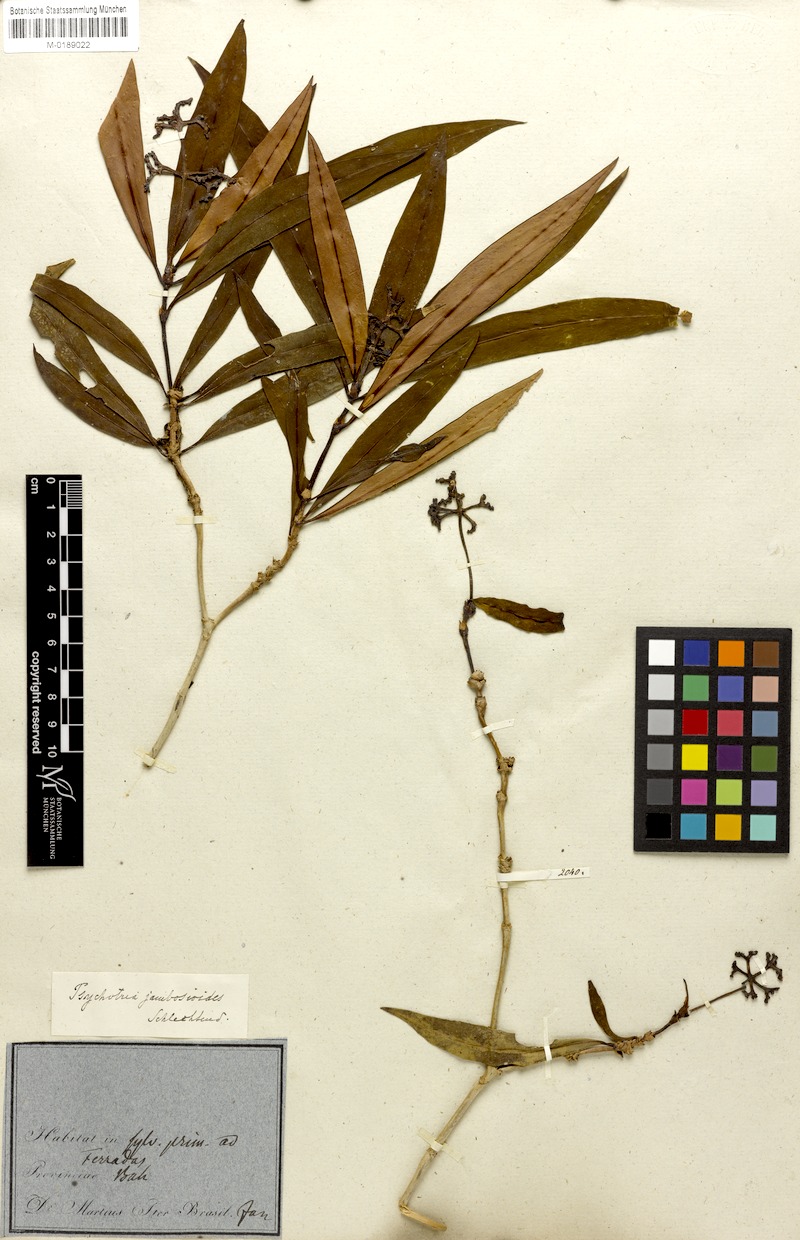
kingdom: Plantae
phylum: Tracheophyta
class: Magnoliopsida
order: Gentianales
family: Rubiaceae
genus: Palicourea
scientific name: Palicourea jambosioides
